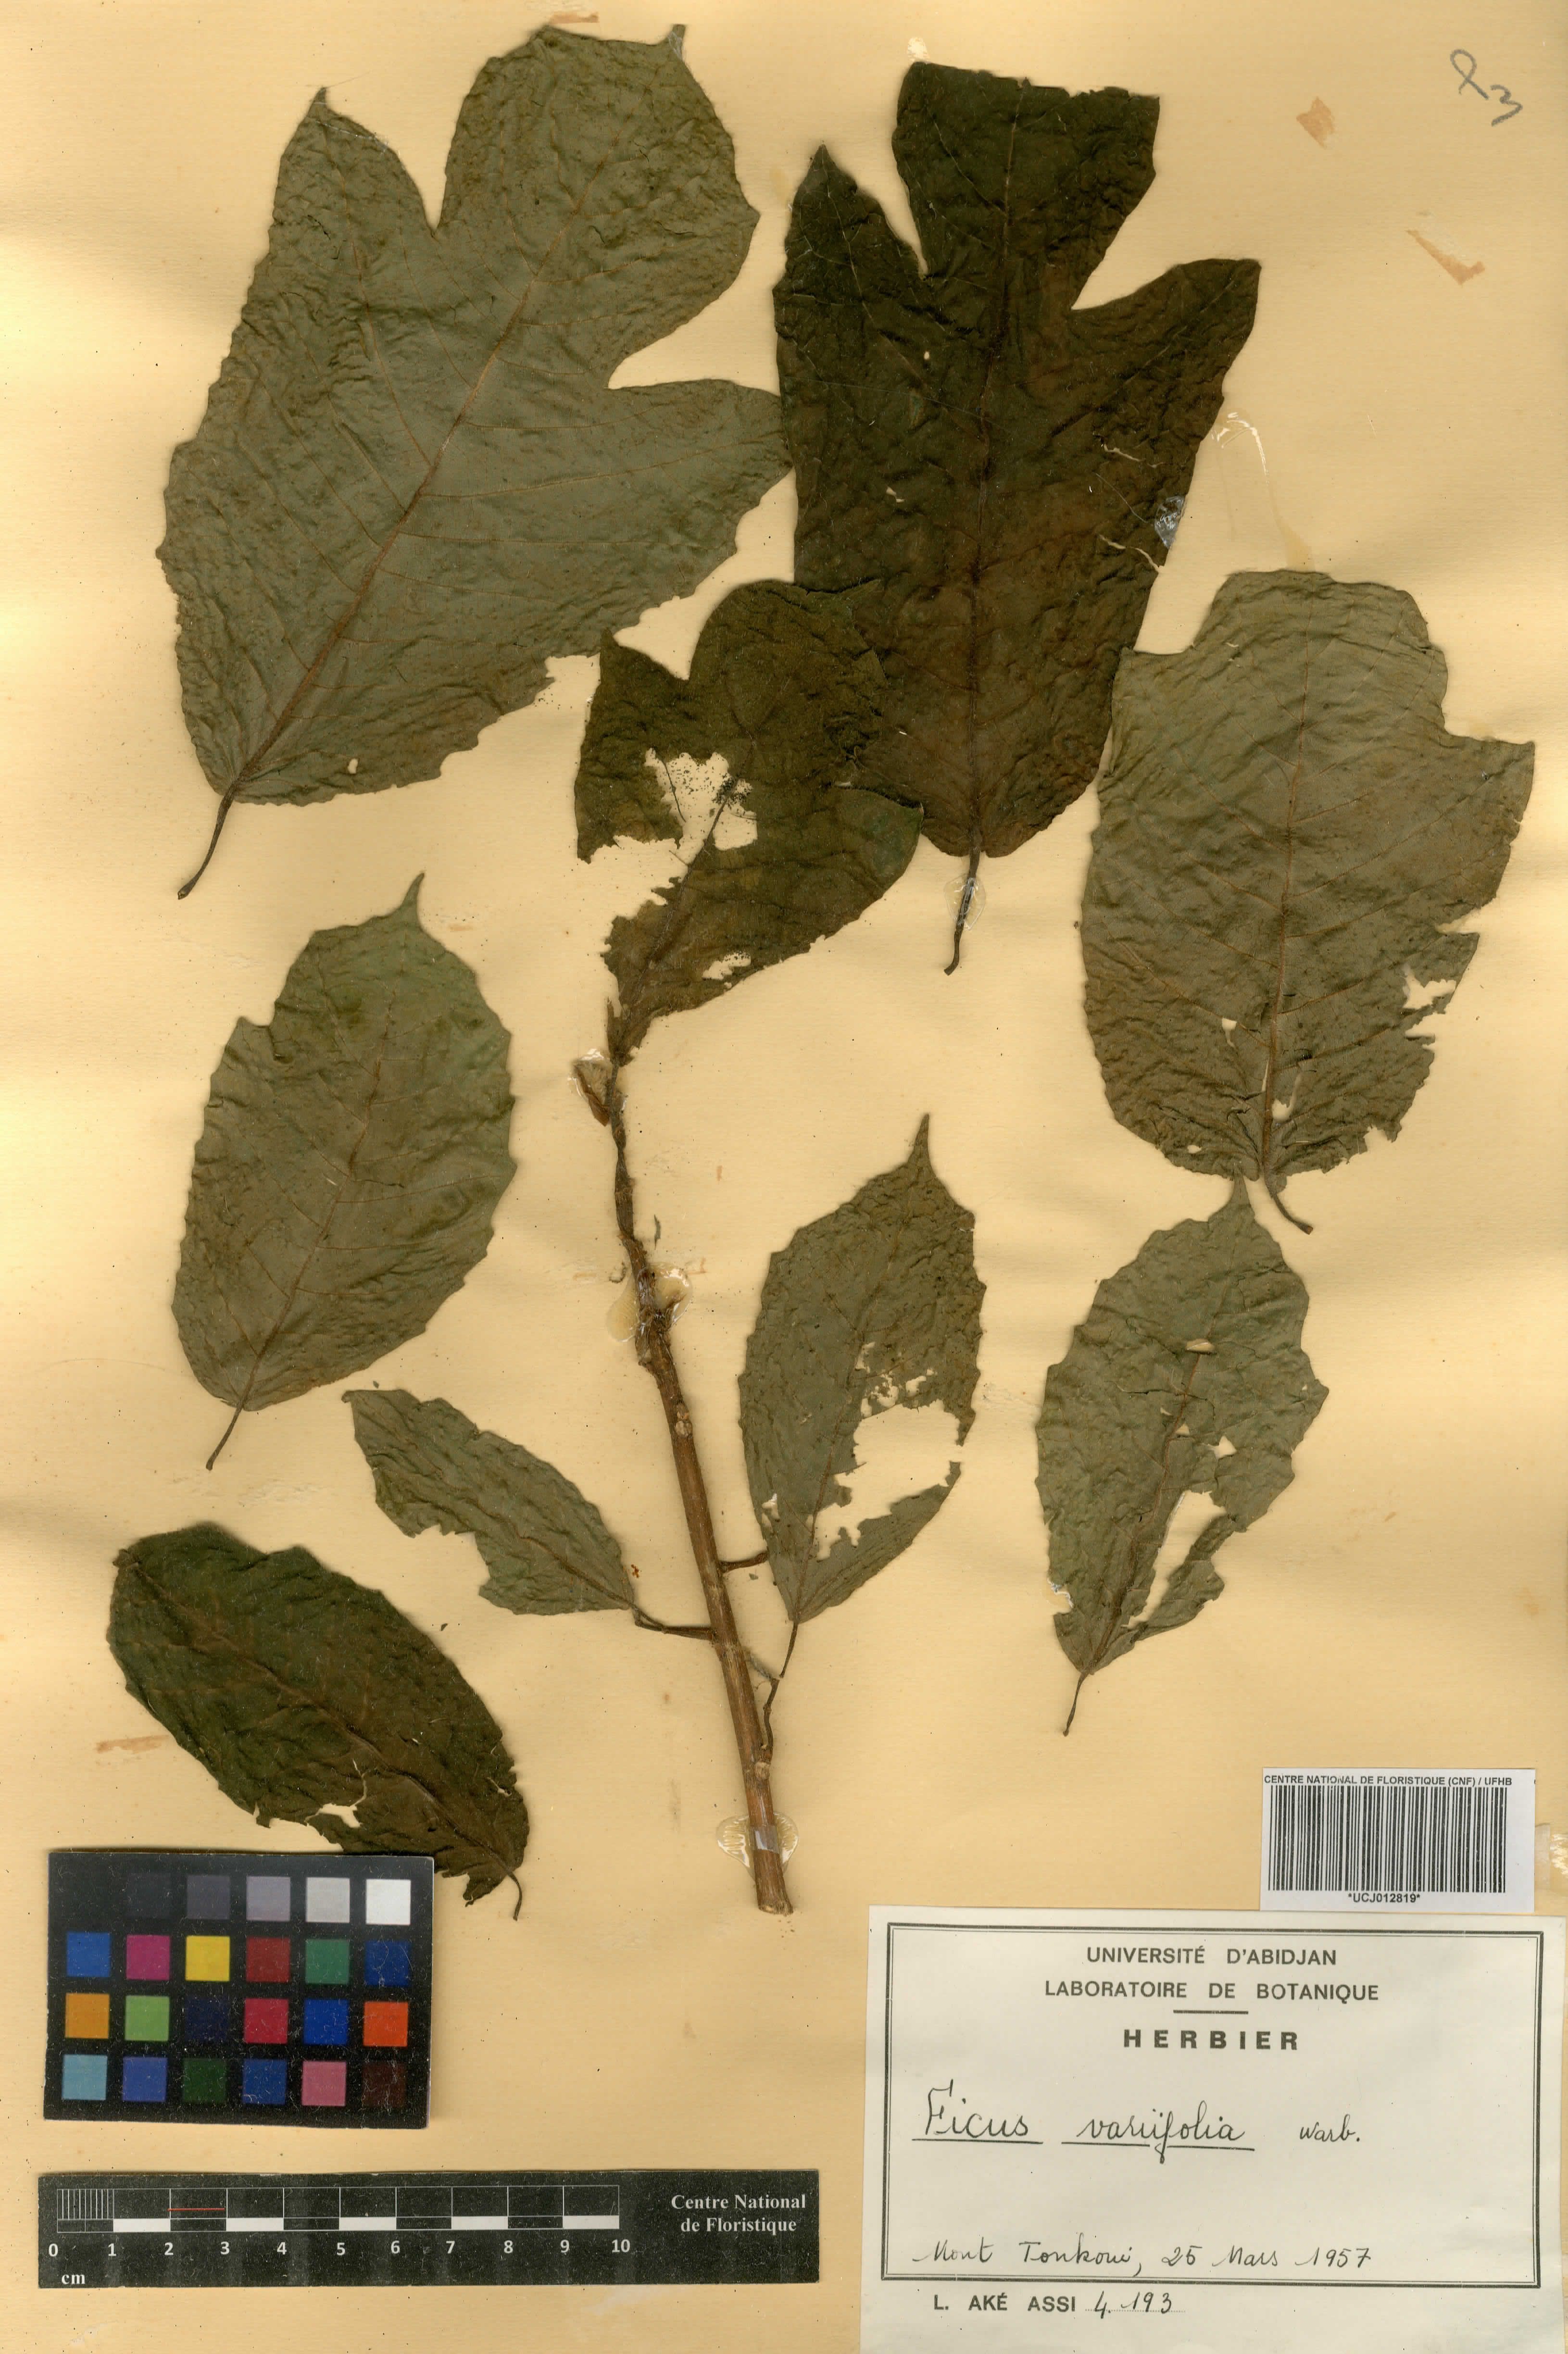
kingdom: Plantae
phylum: Tracheophyta
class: Magnoliopsida
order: Rosales
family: Moraceae
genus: Ficus
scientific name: Ficus variifolia
